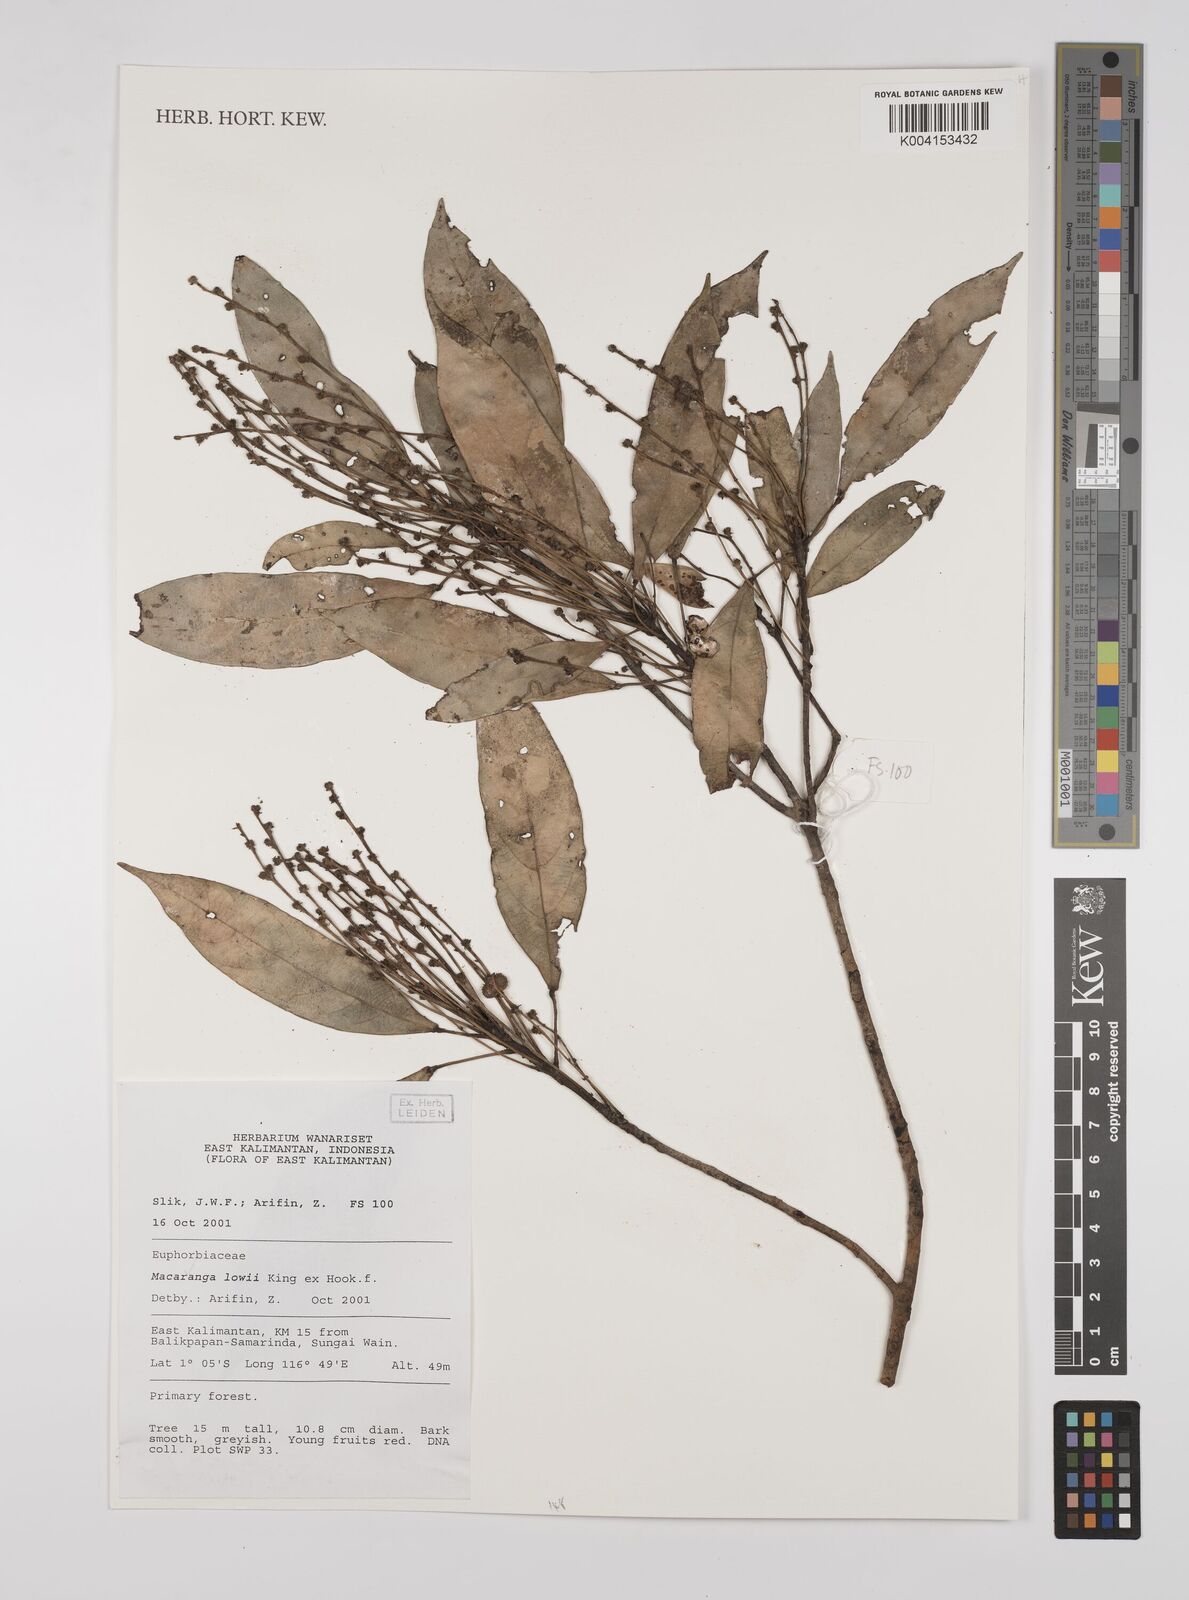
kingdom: Plantae
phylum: Tracheophyta
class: Magnoliopsida
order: Malpighiales
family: Euphorbiaceae
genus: Macaranga
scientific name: Macaranga lowii
